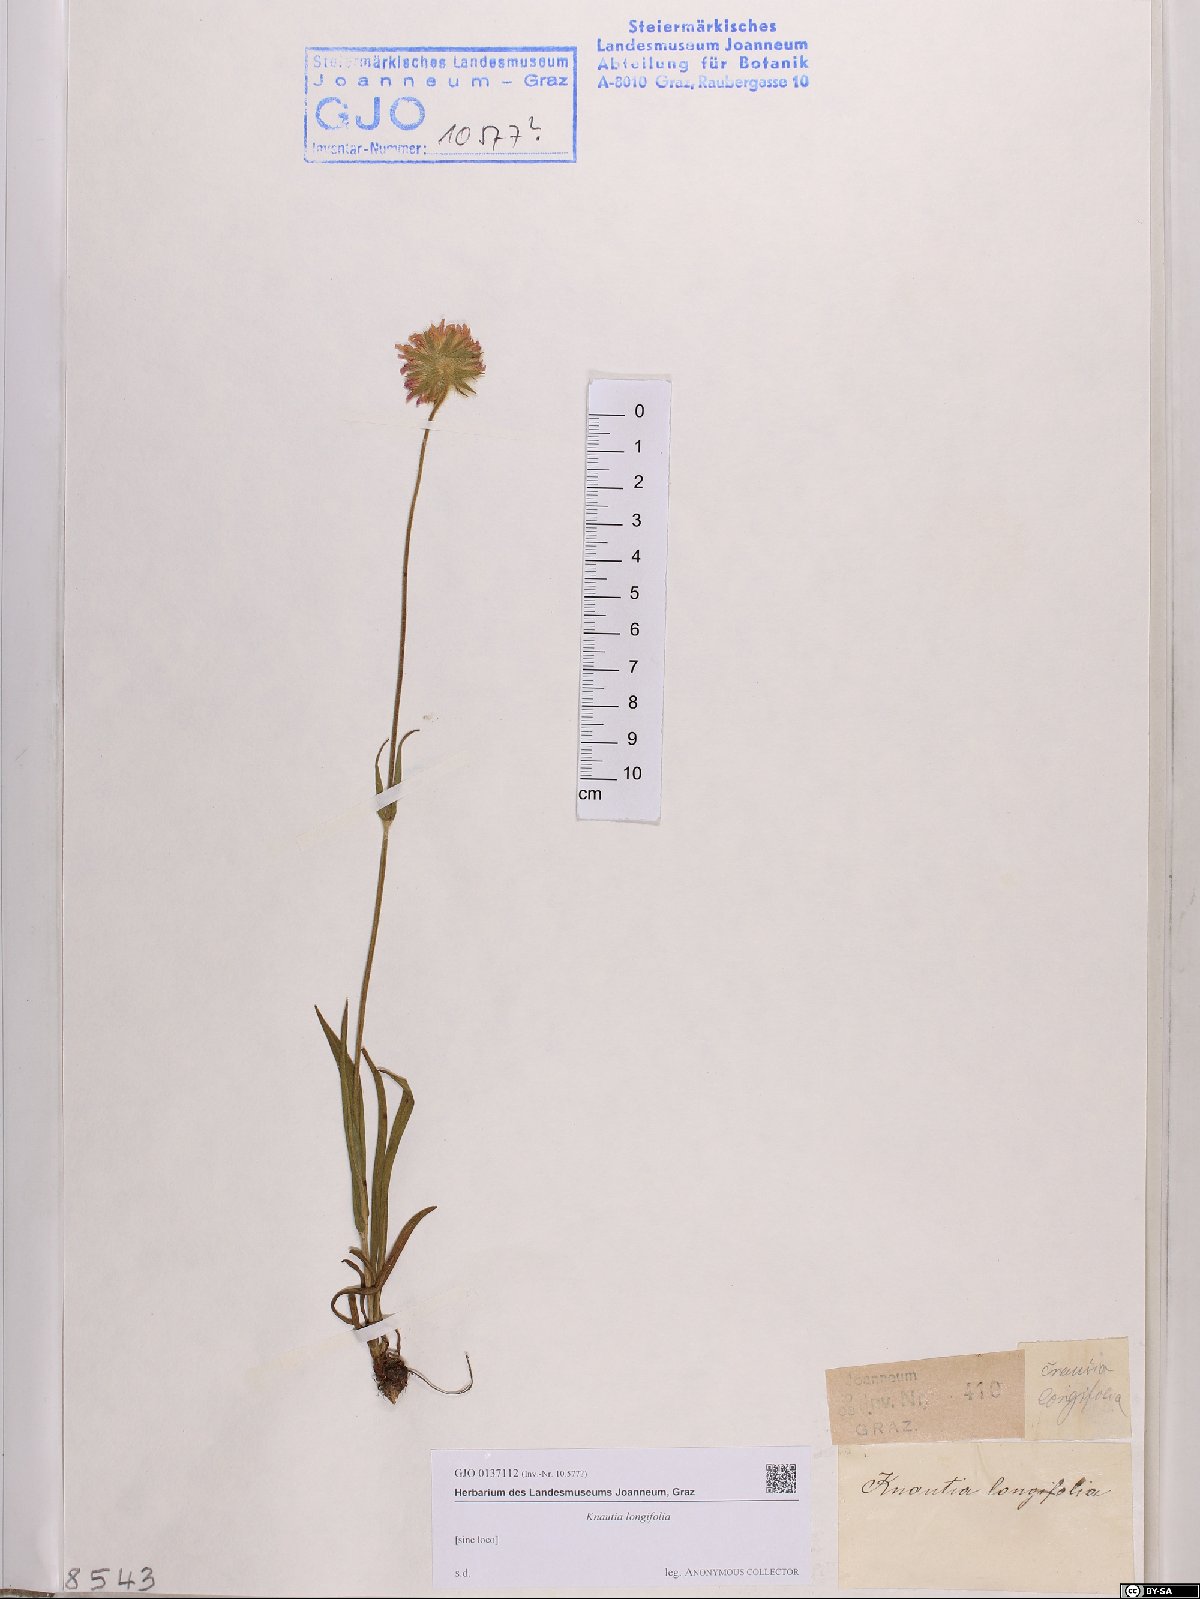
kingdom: Plantae
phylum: Tracheophyta
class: Magnoliopsida
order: Dipsacales
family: Caprifoliaceae
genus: Knautia
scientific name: Knautia longifolia
